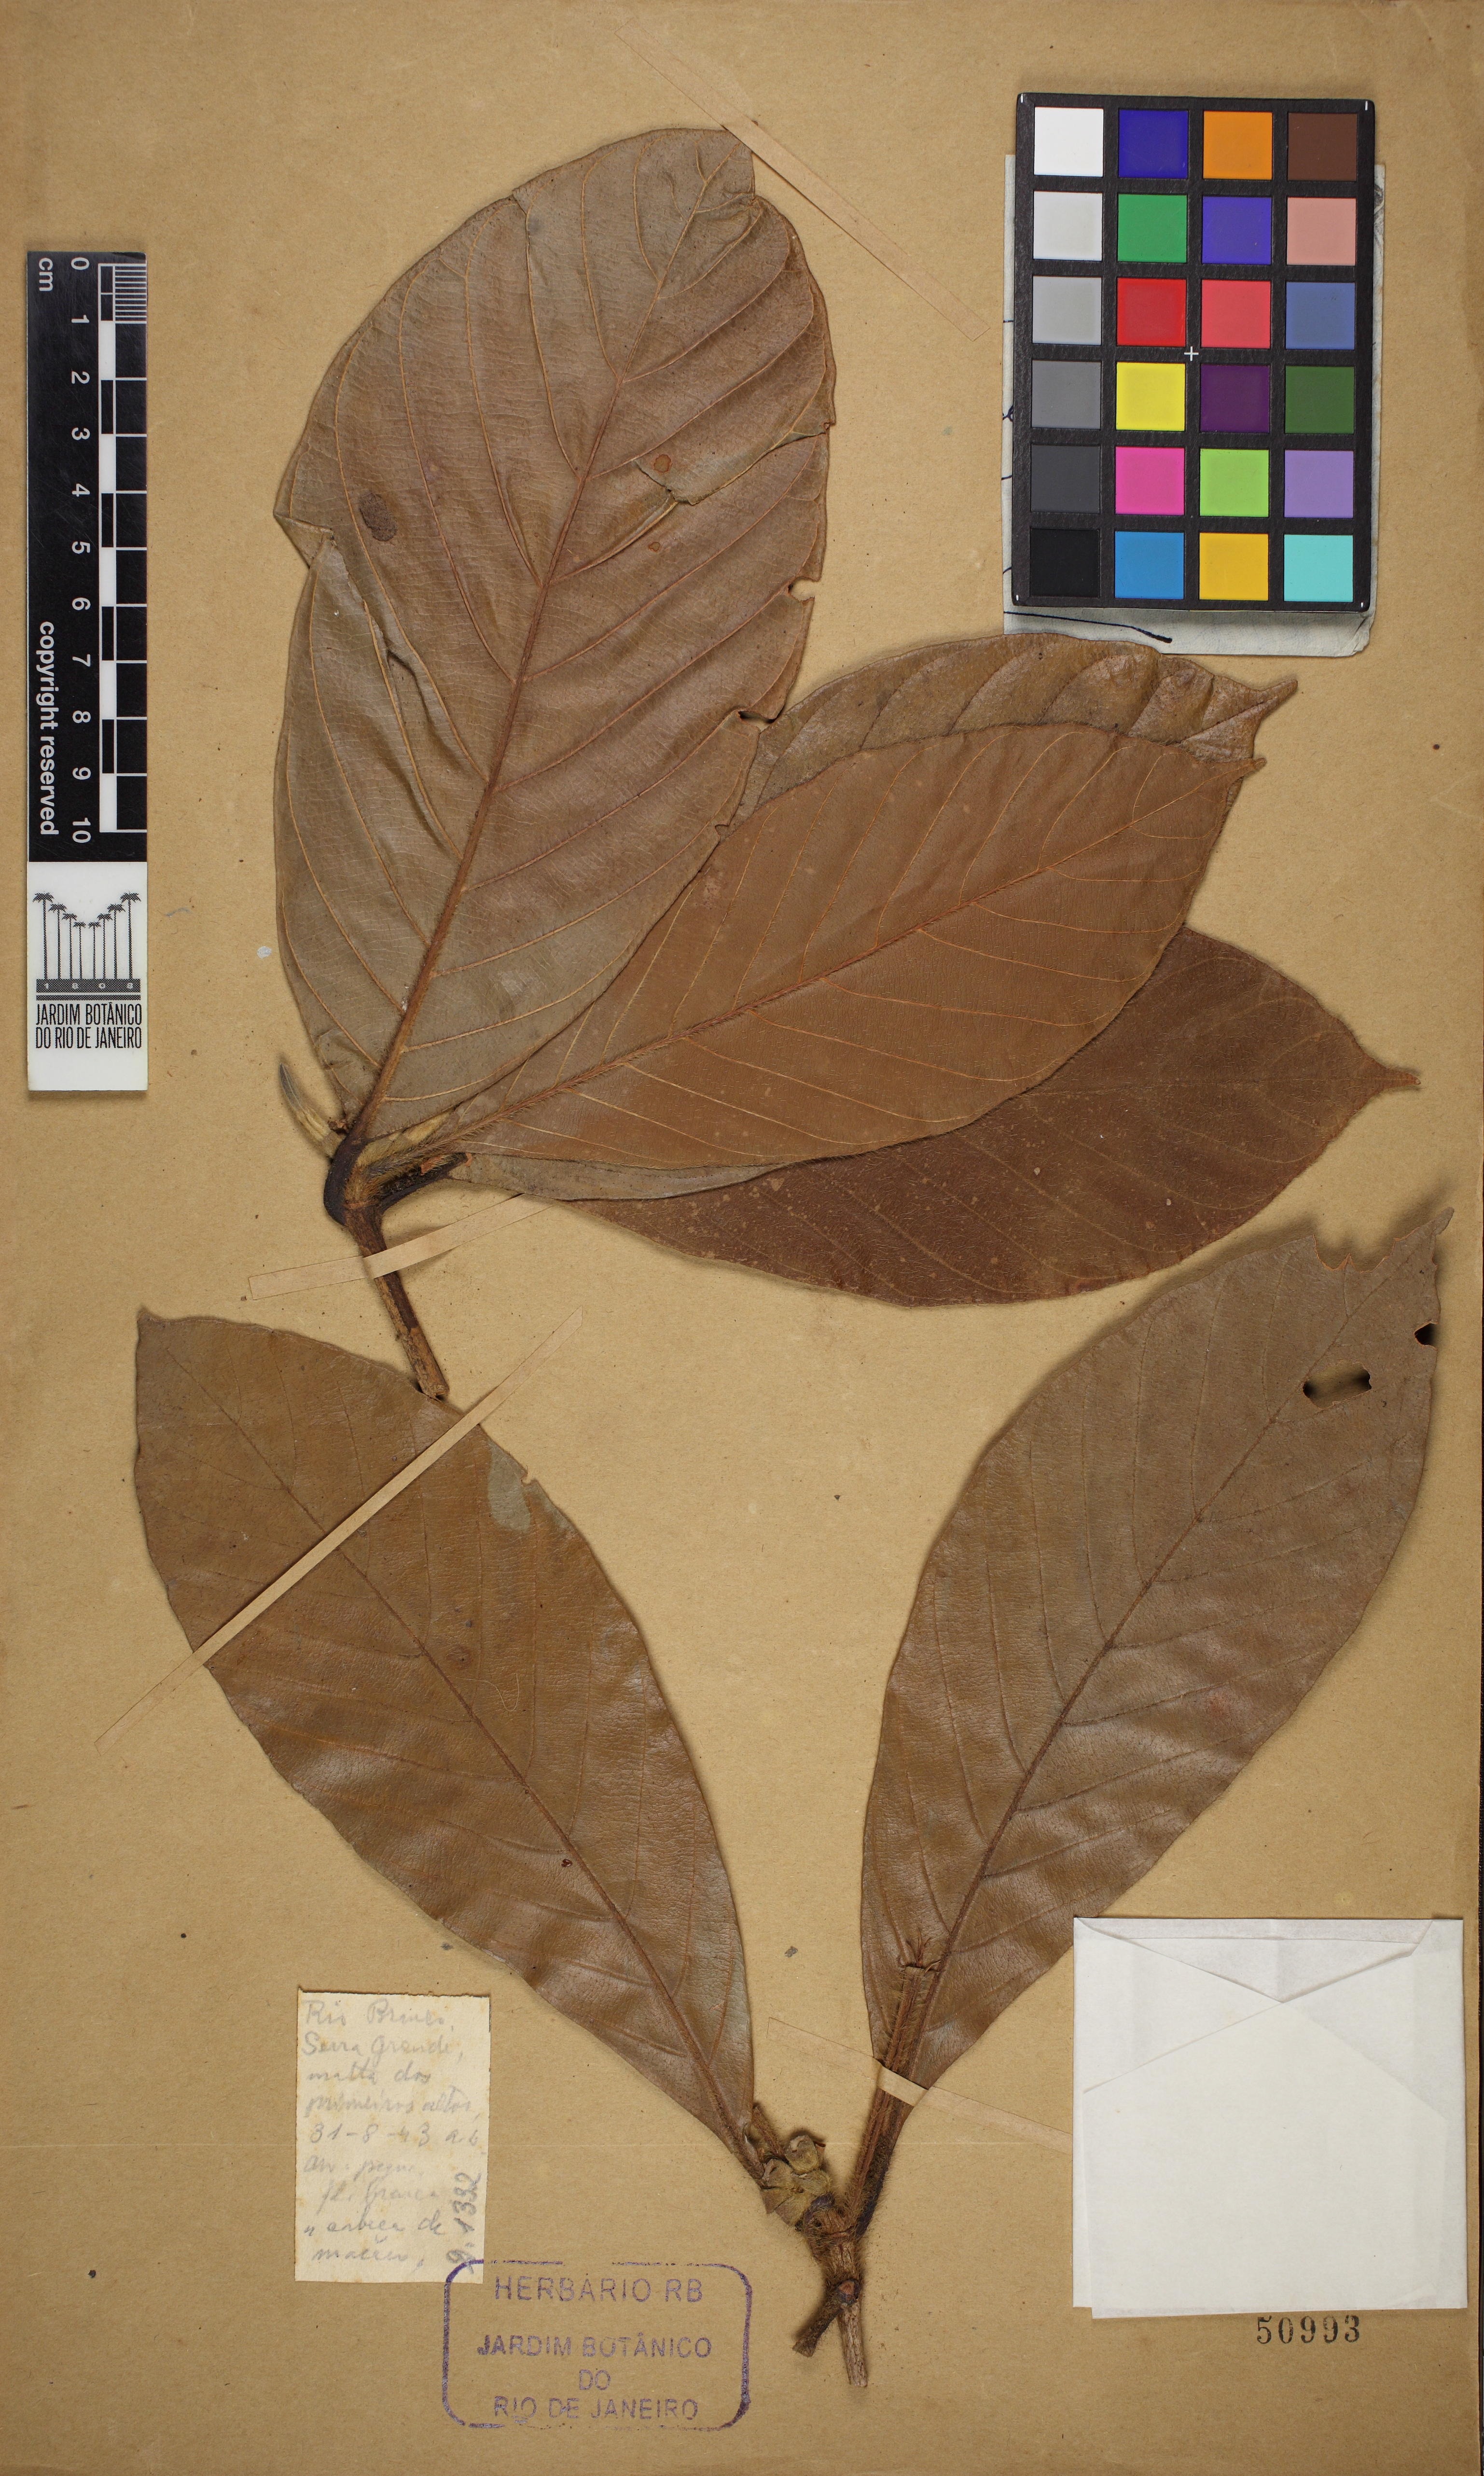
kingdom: Plantae
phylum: Tracheophyta
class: Magnoliopsida
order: Gentianales
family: Rubiaceae
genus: Duroia
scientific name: Duroia eriopila
